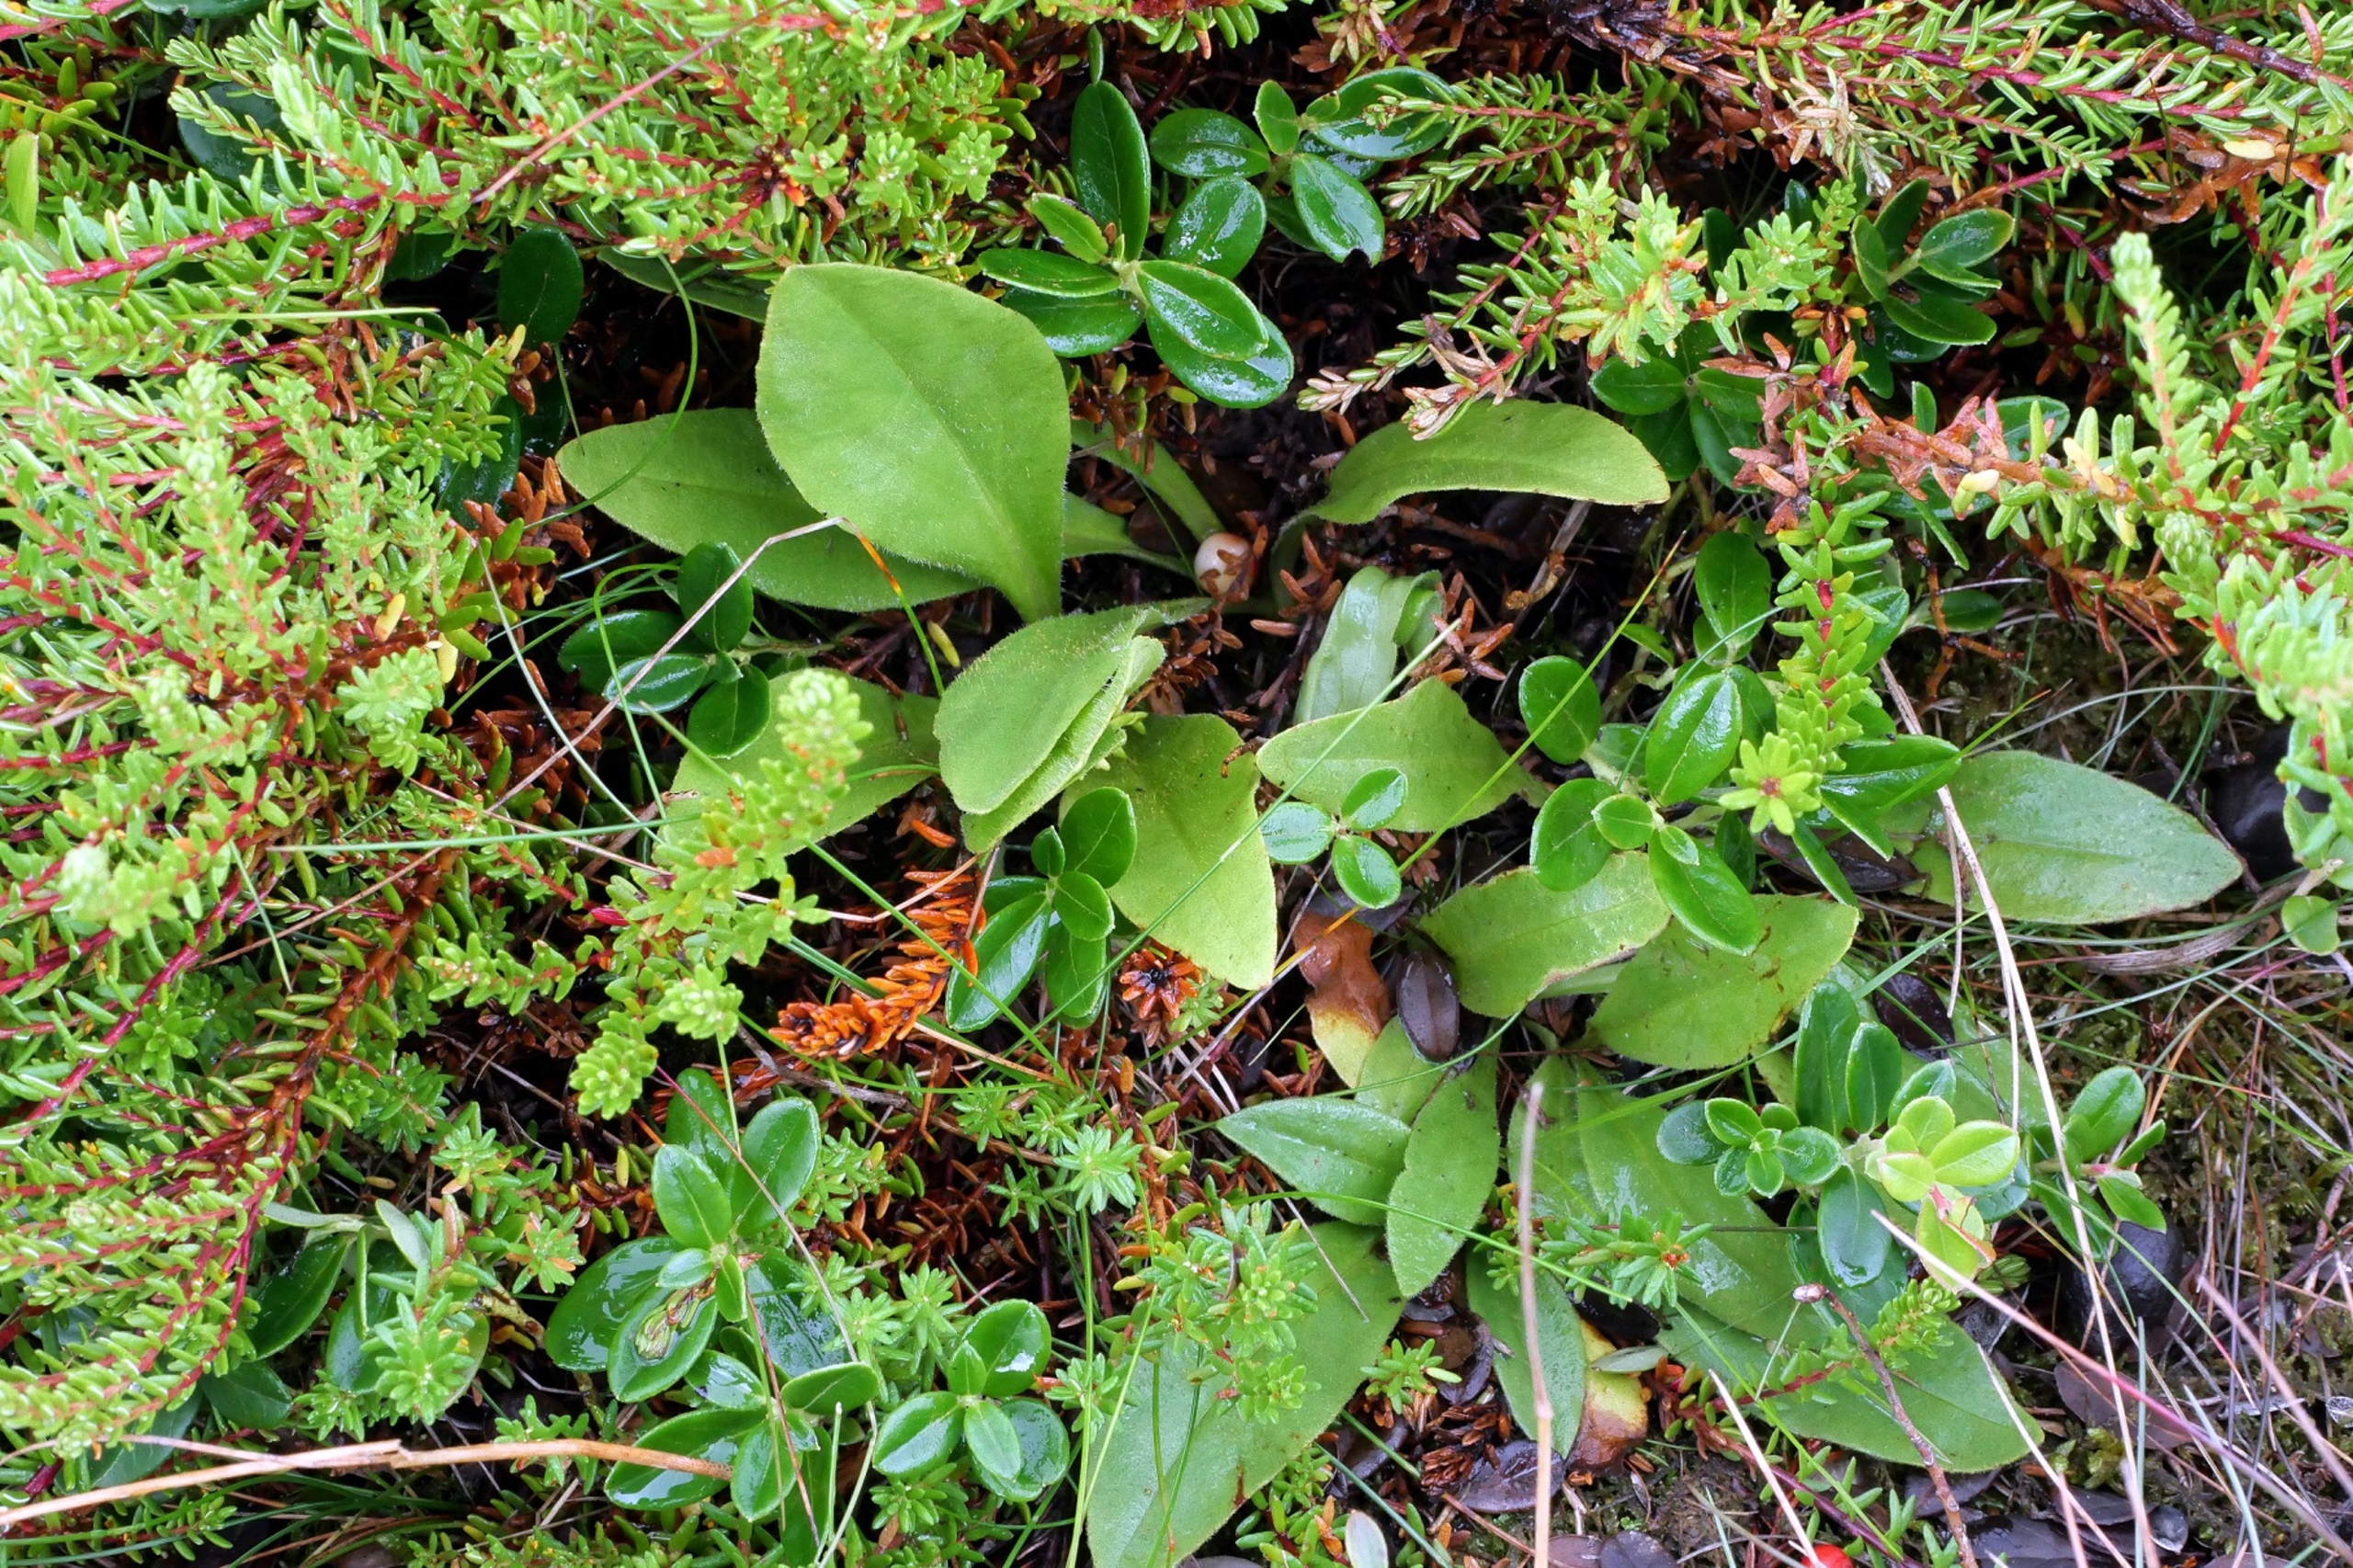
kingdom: Plantae
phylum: Tracheophyta
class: Magnoliopsida
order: Asterales
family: Asteraceae
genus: Arnica
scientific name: Arnica montana
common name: Guldblomme
